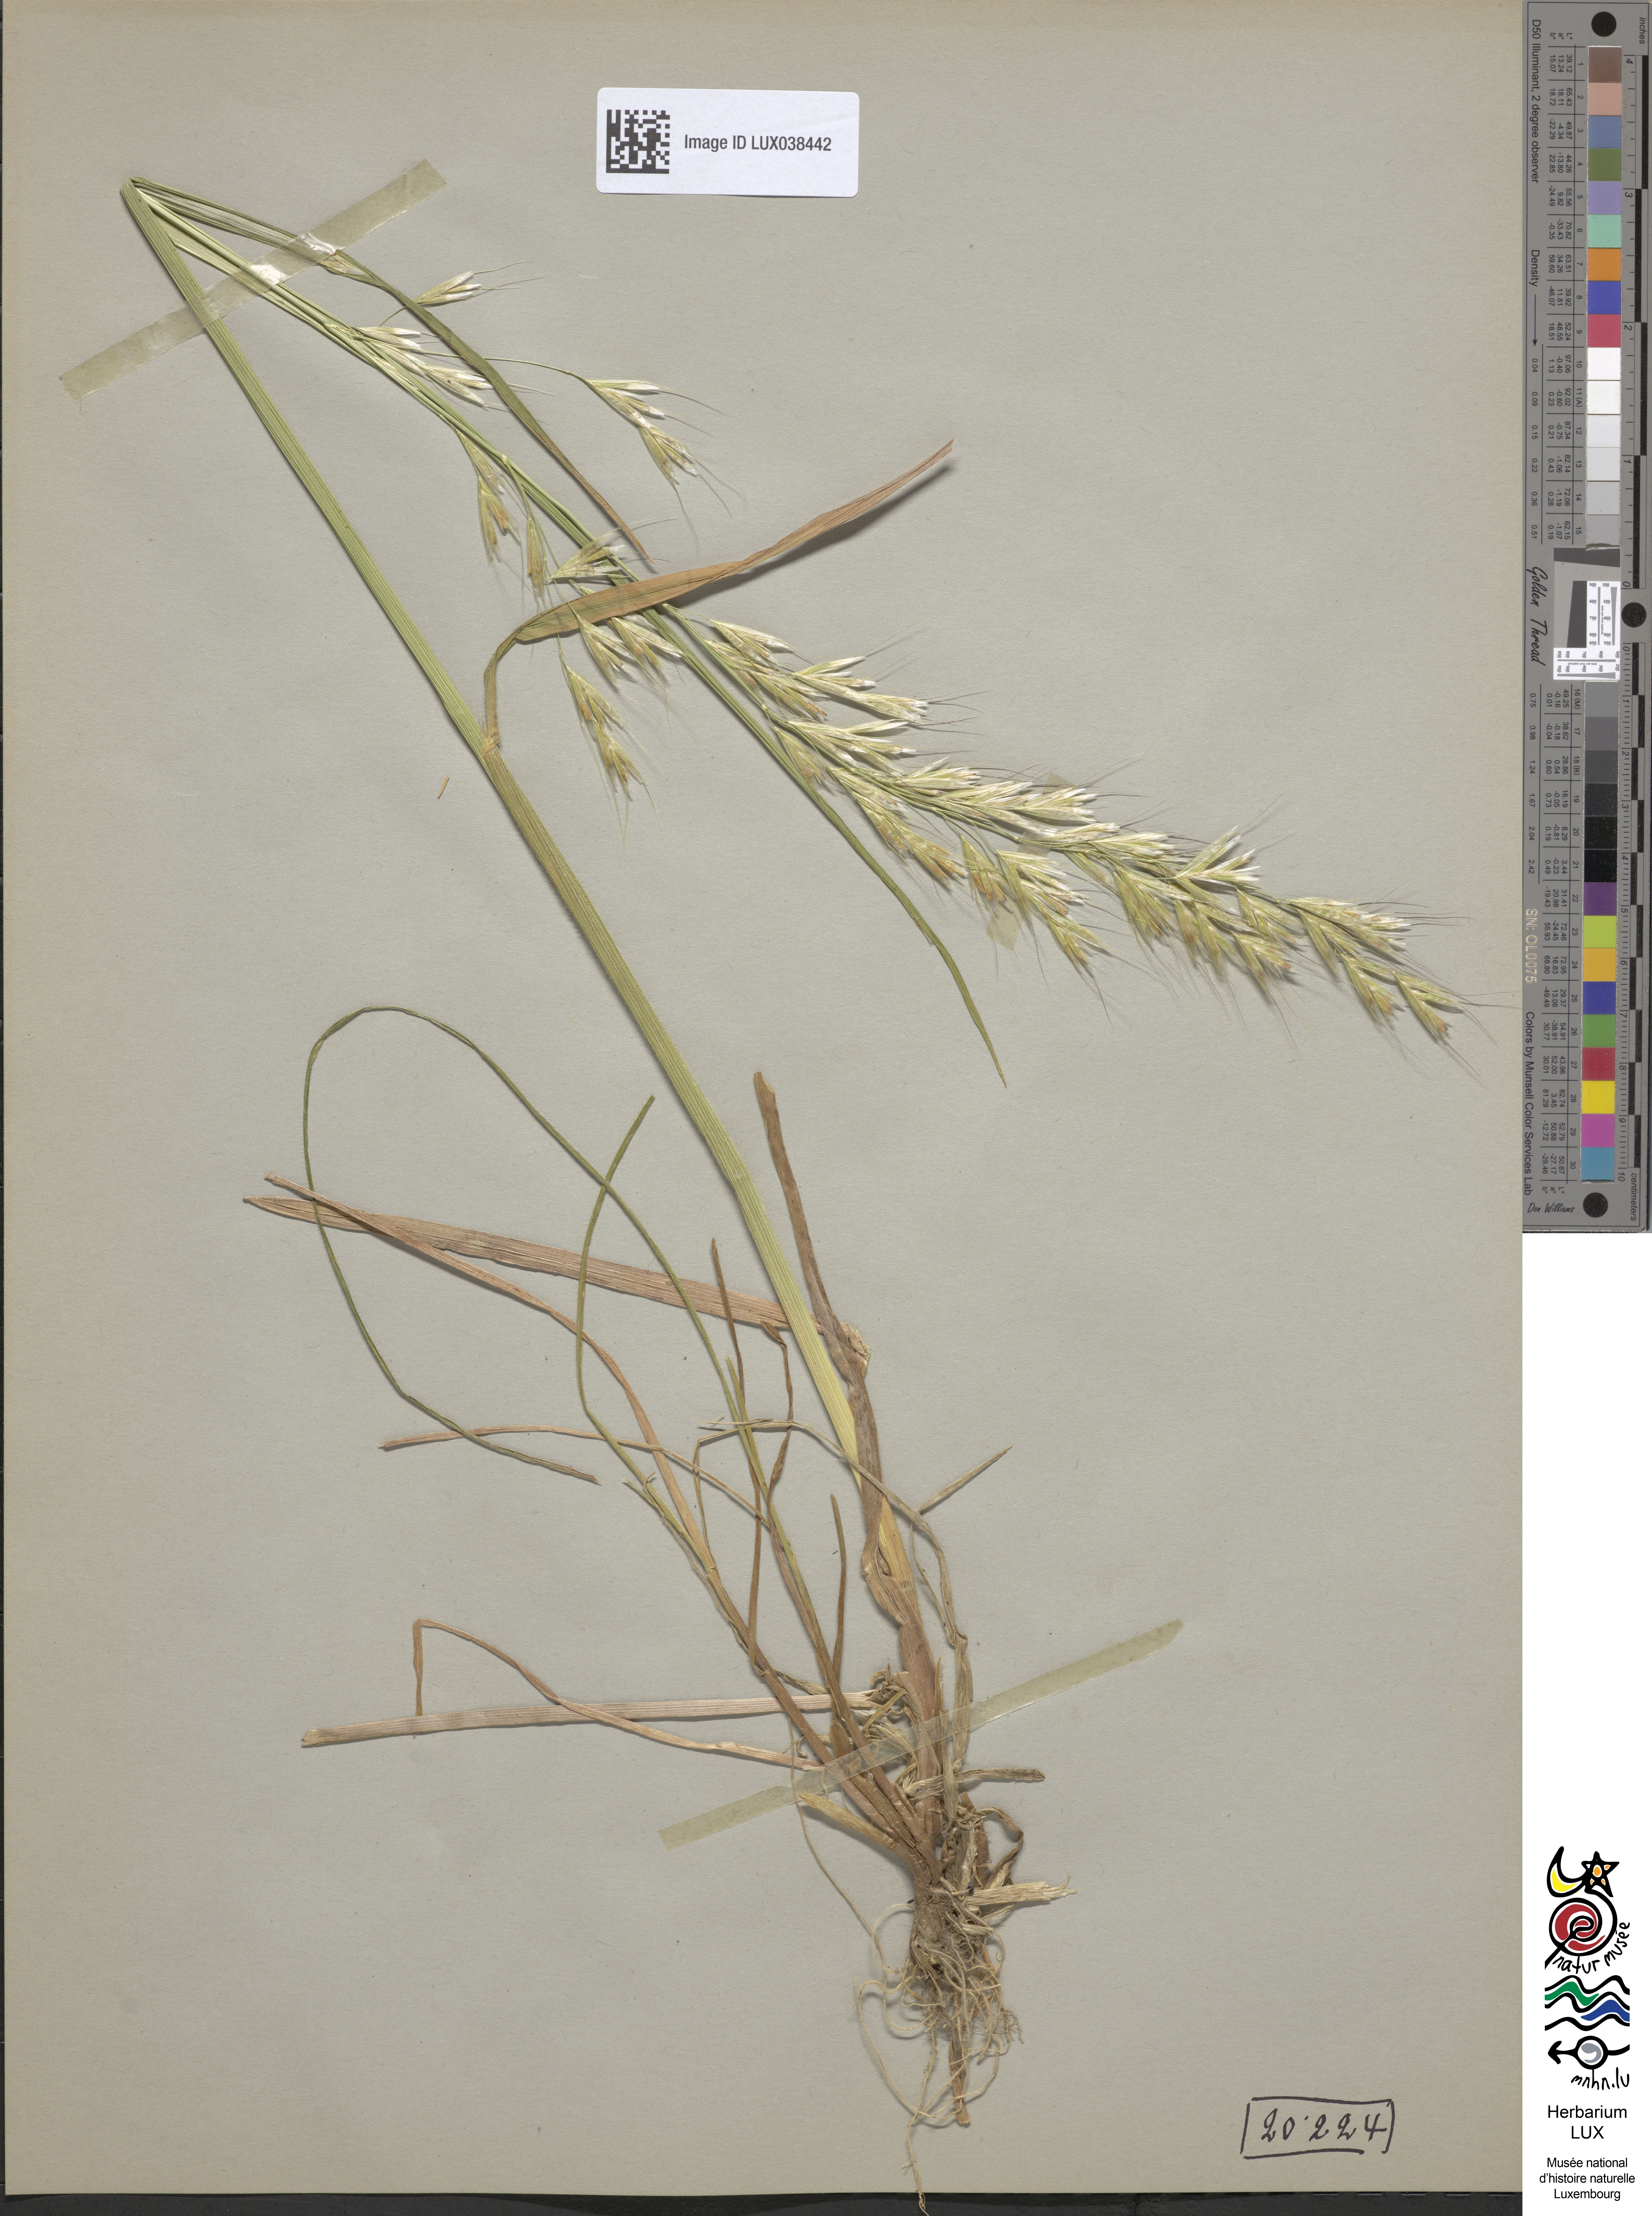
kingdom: Plantae
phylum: Tracheophyta
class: Liliopsida
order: Poales
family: Poaceae
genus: Avenula
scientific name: Avenula pubescens
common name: Downy alpine oatgrass
